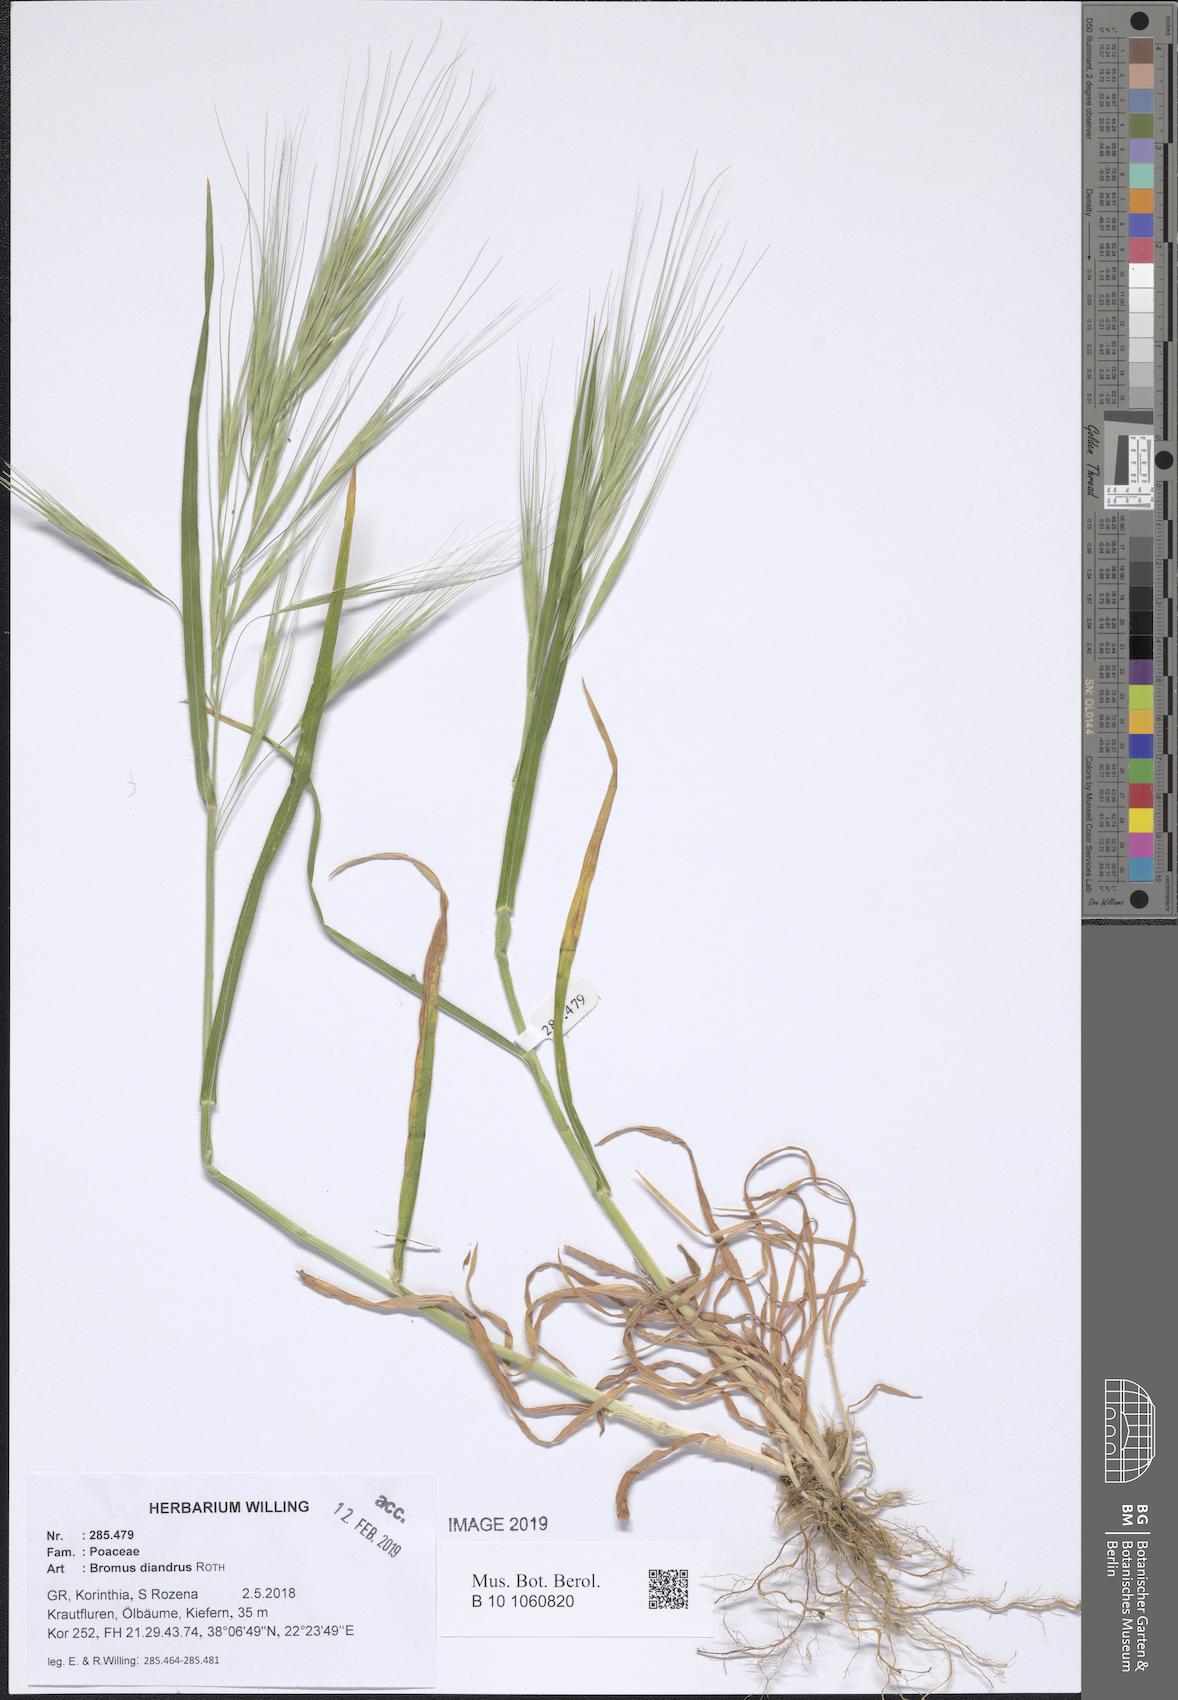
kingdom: Plantae
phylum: Tracheophyta
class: Liliopsida
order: Poales
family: Poaceae
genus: Bromus
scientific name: Bromus diandrus
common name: Ripgut brome
